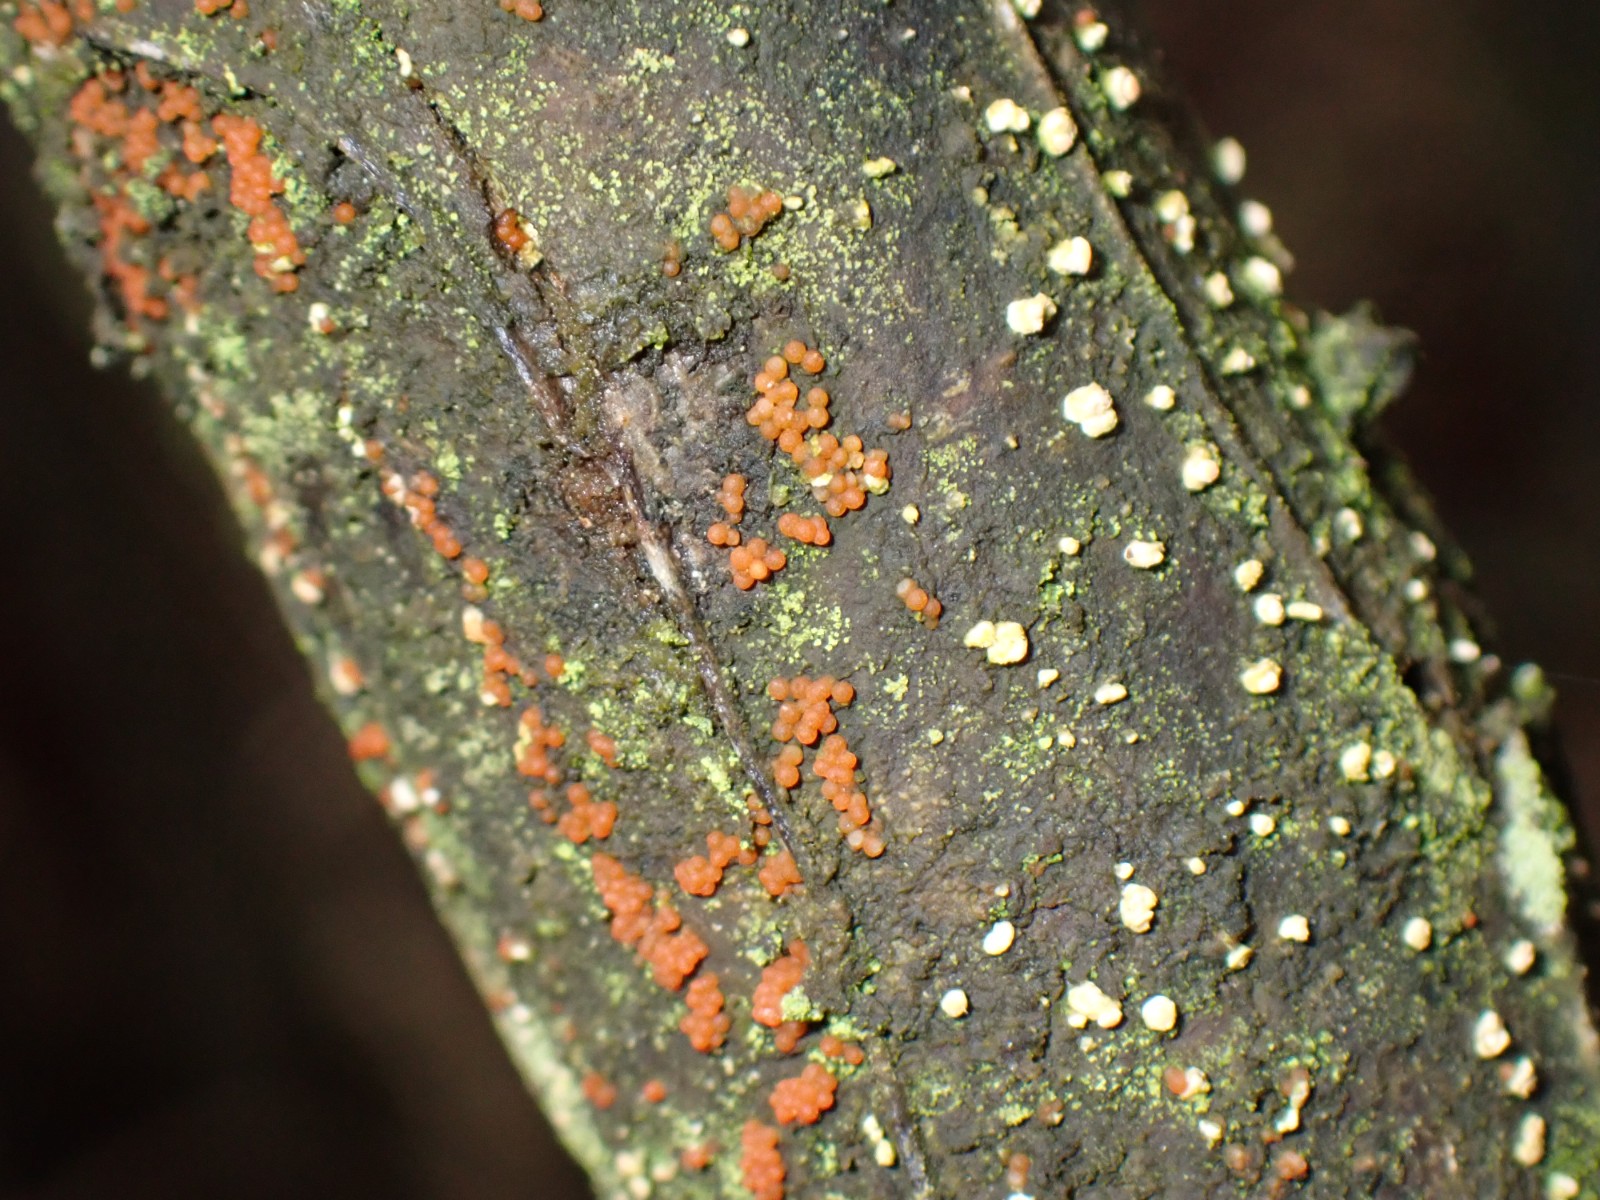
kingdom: Fungi
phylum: Ascomycota
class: Sordariomycetes
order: Hypocreales
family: Nectriaceae
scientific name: Nectriaceae
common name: cinnobersvampfamilien
